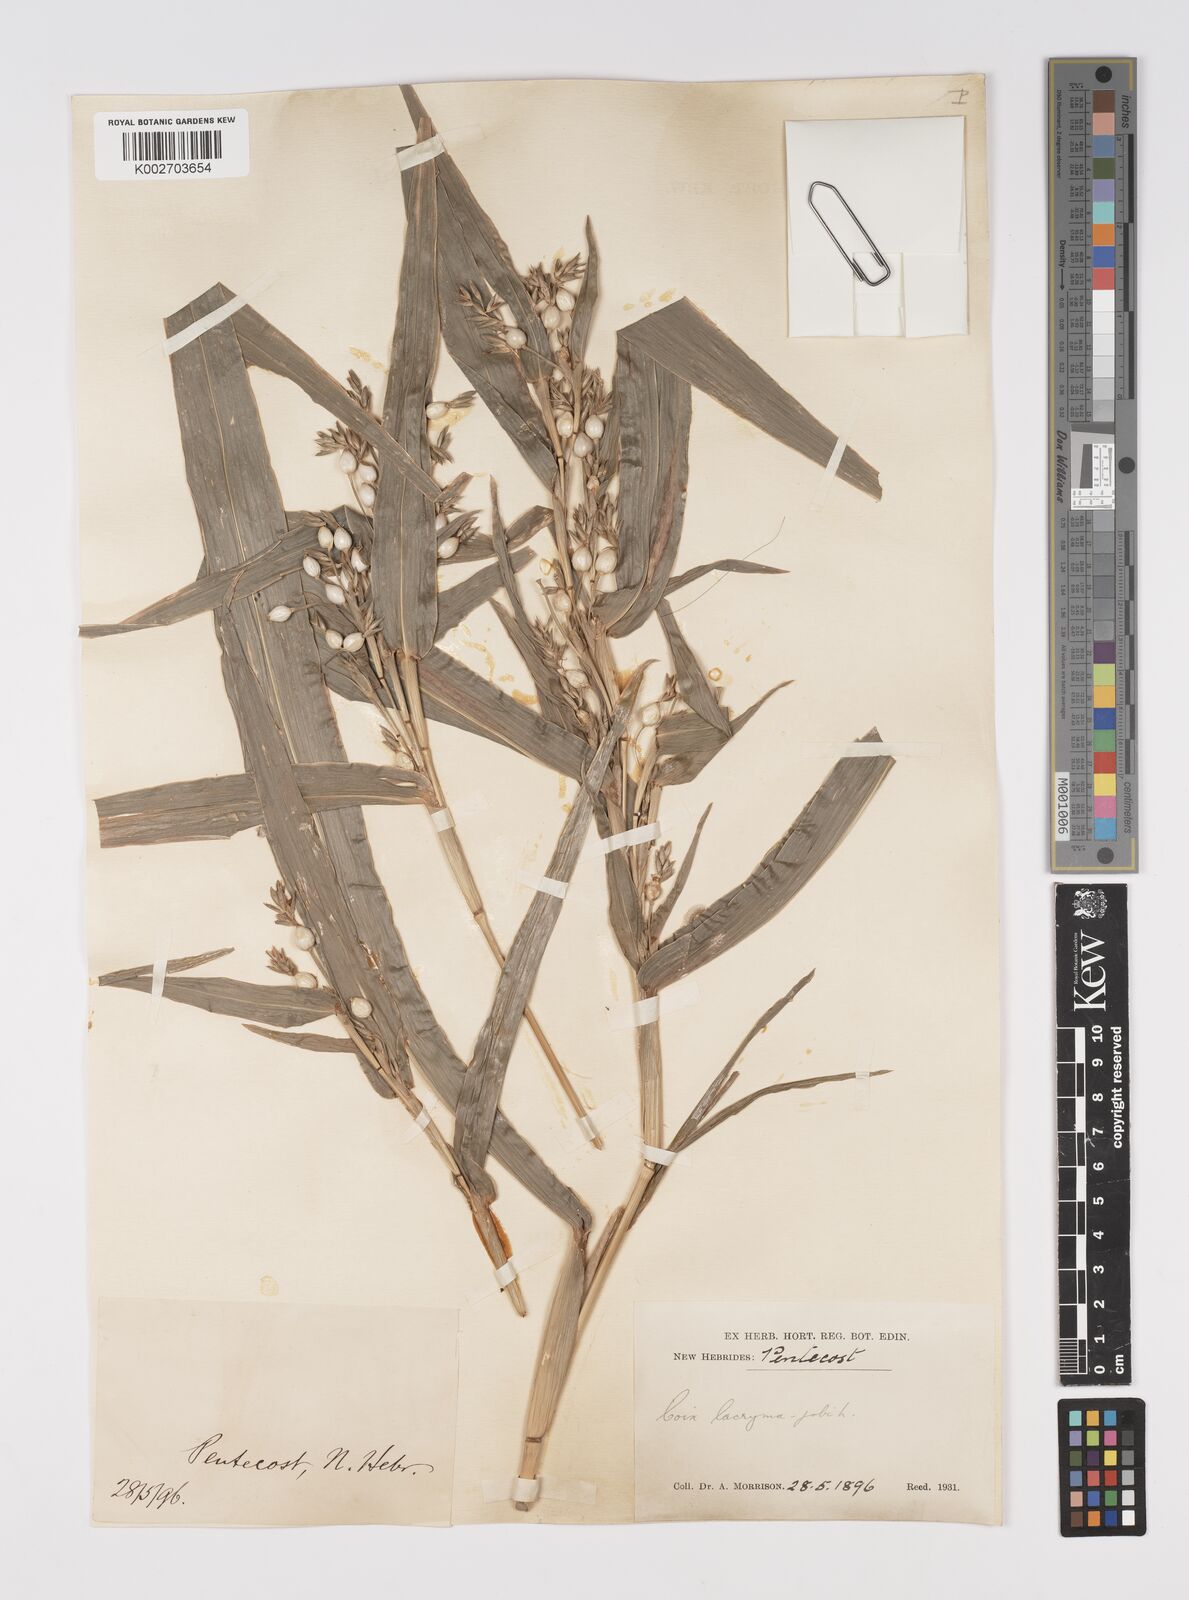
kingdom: Plantae
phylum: Tracheophyta
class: Liliopsida
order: Poales
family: Poaceae
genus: Coix
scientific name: Coix lacryma-jobi
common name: Job's tears
